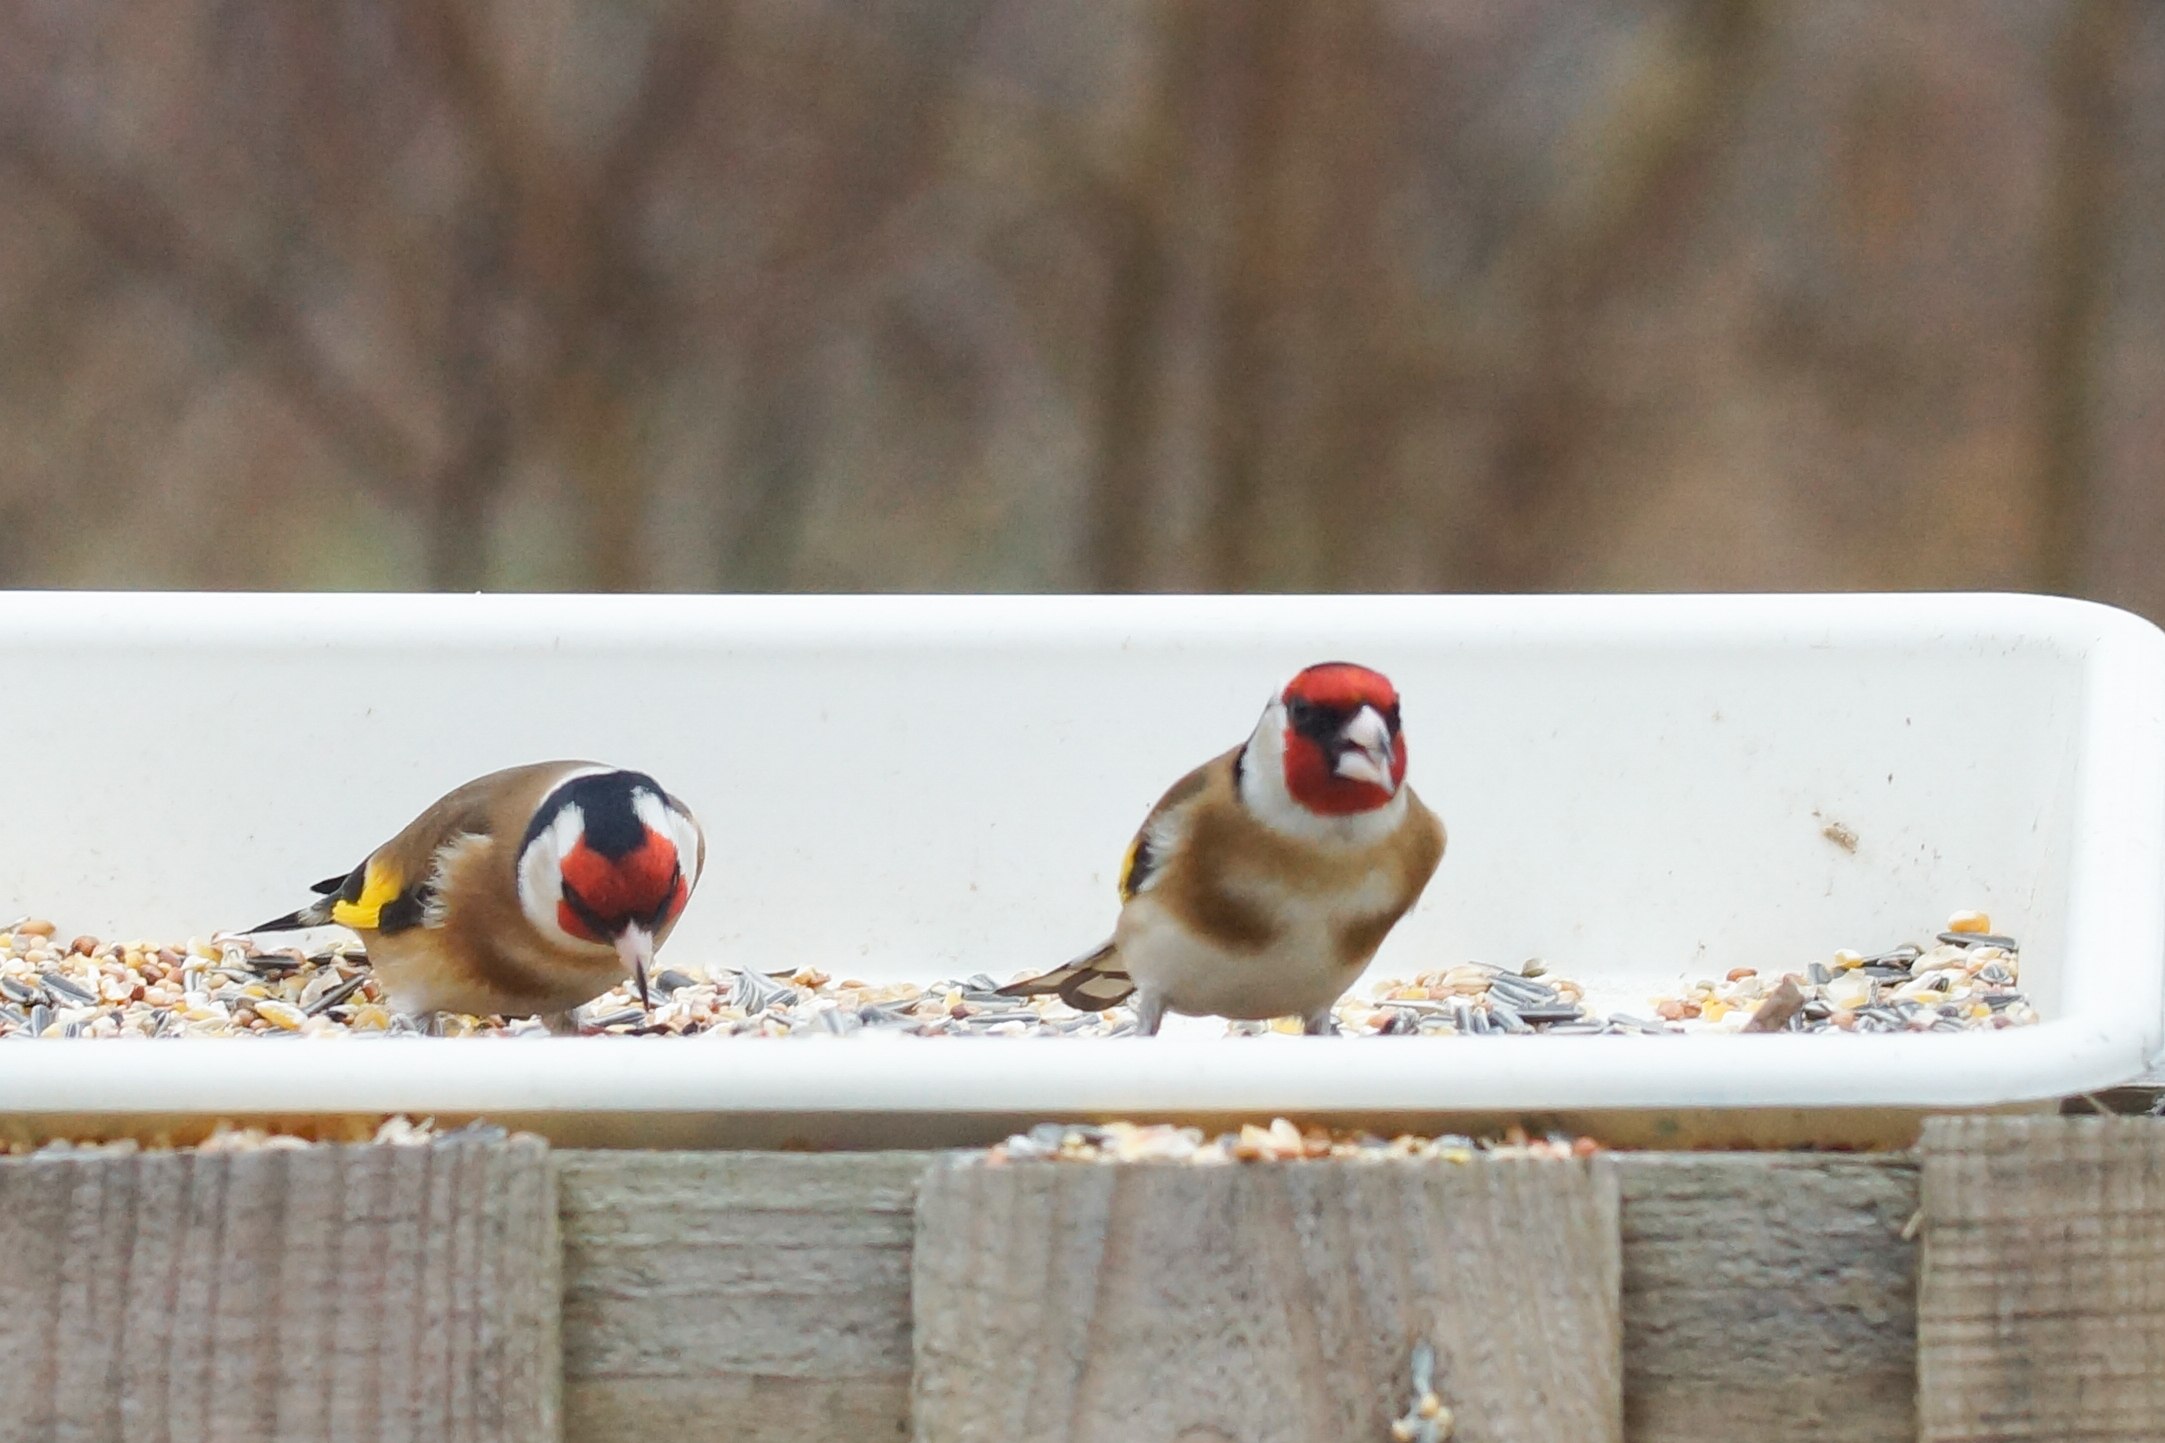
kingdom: Animalia
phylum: Chordata
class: Aves
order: Passeriformes
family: Fringillidae
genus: Carduelis
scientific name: Carduelis carduelis
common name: Stillits
